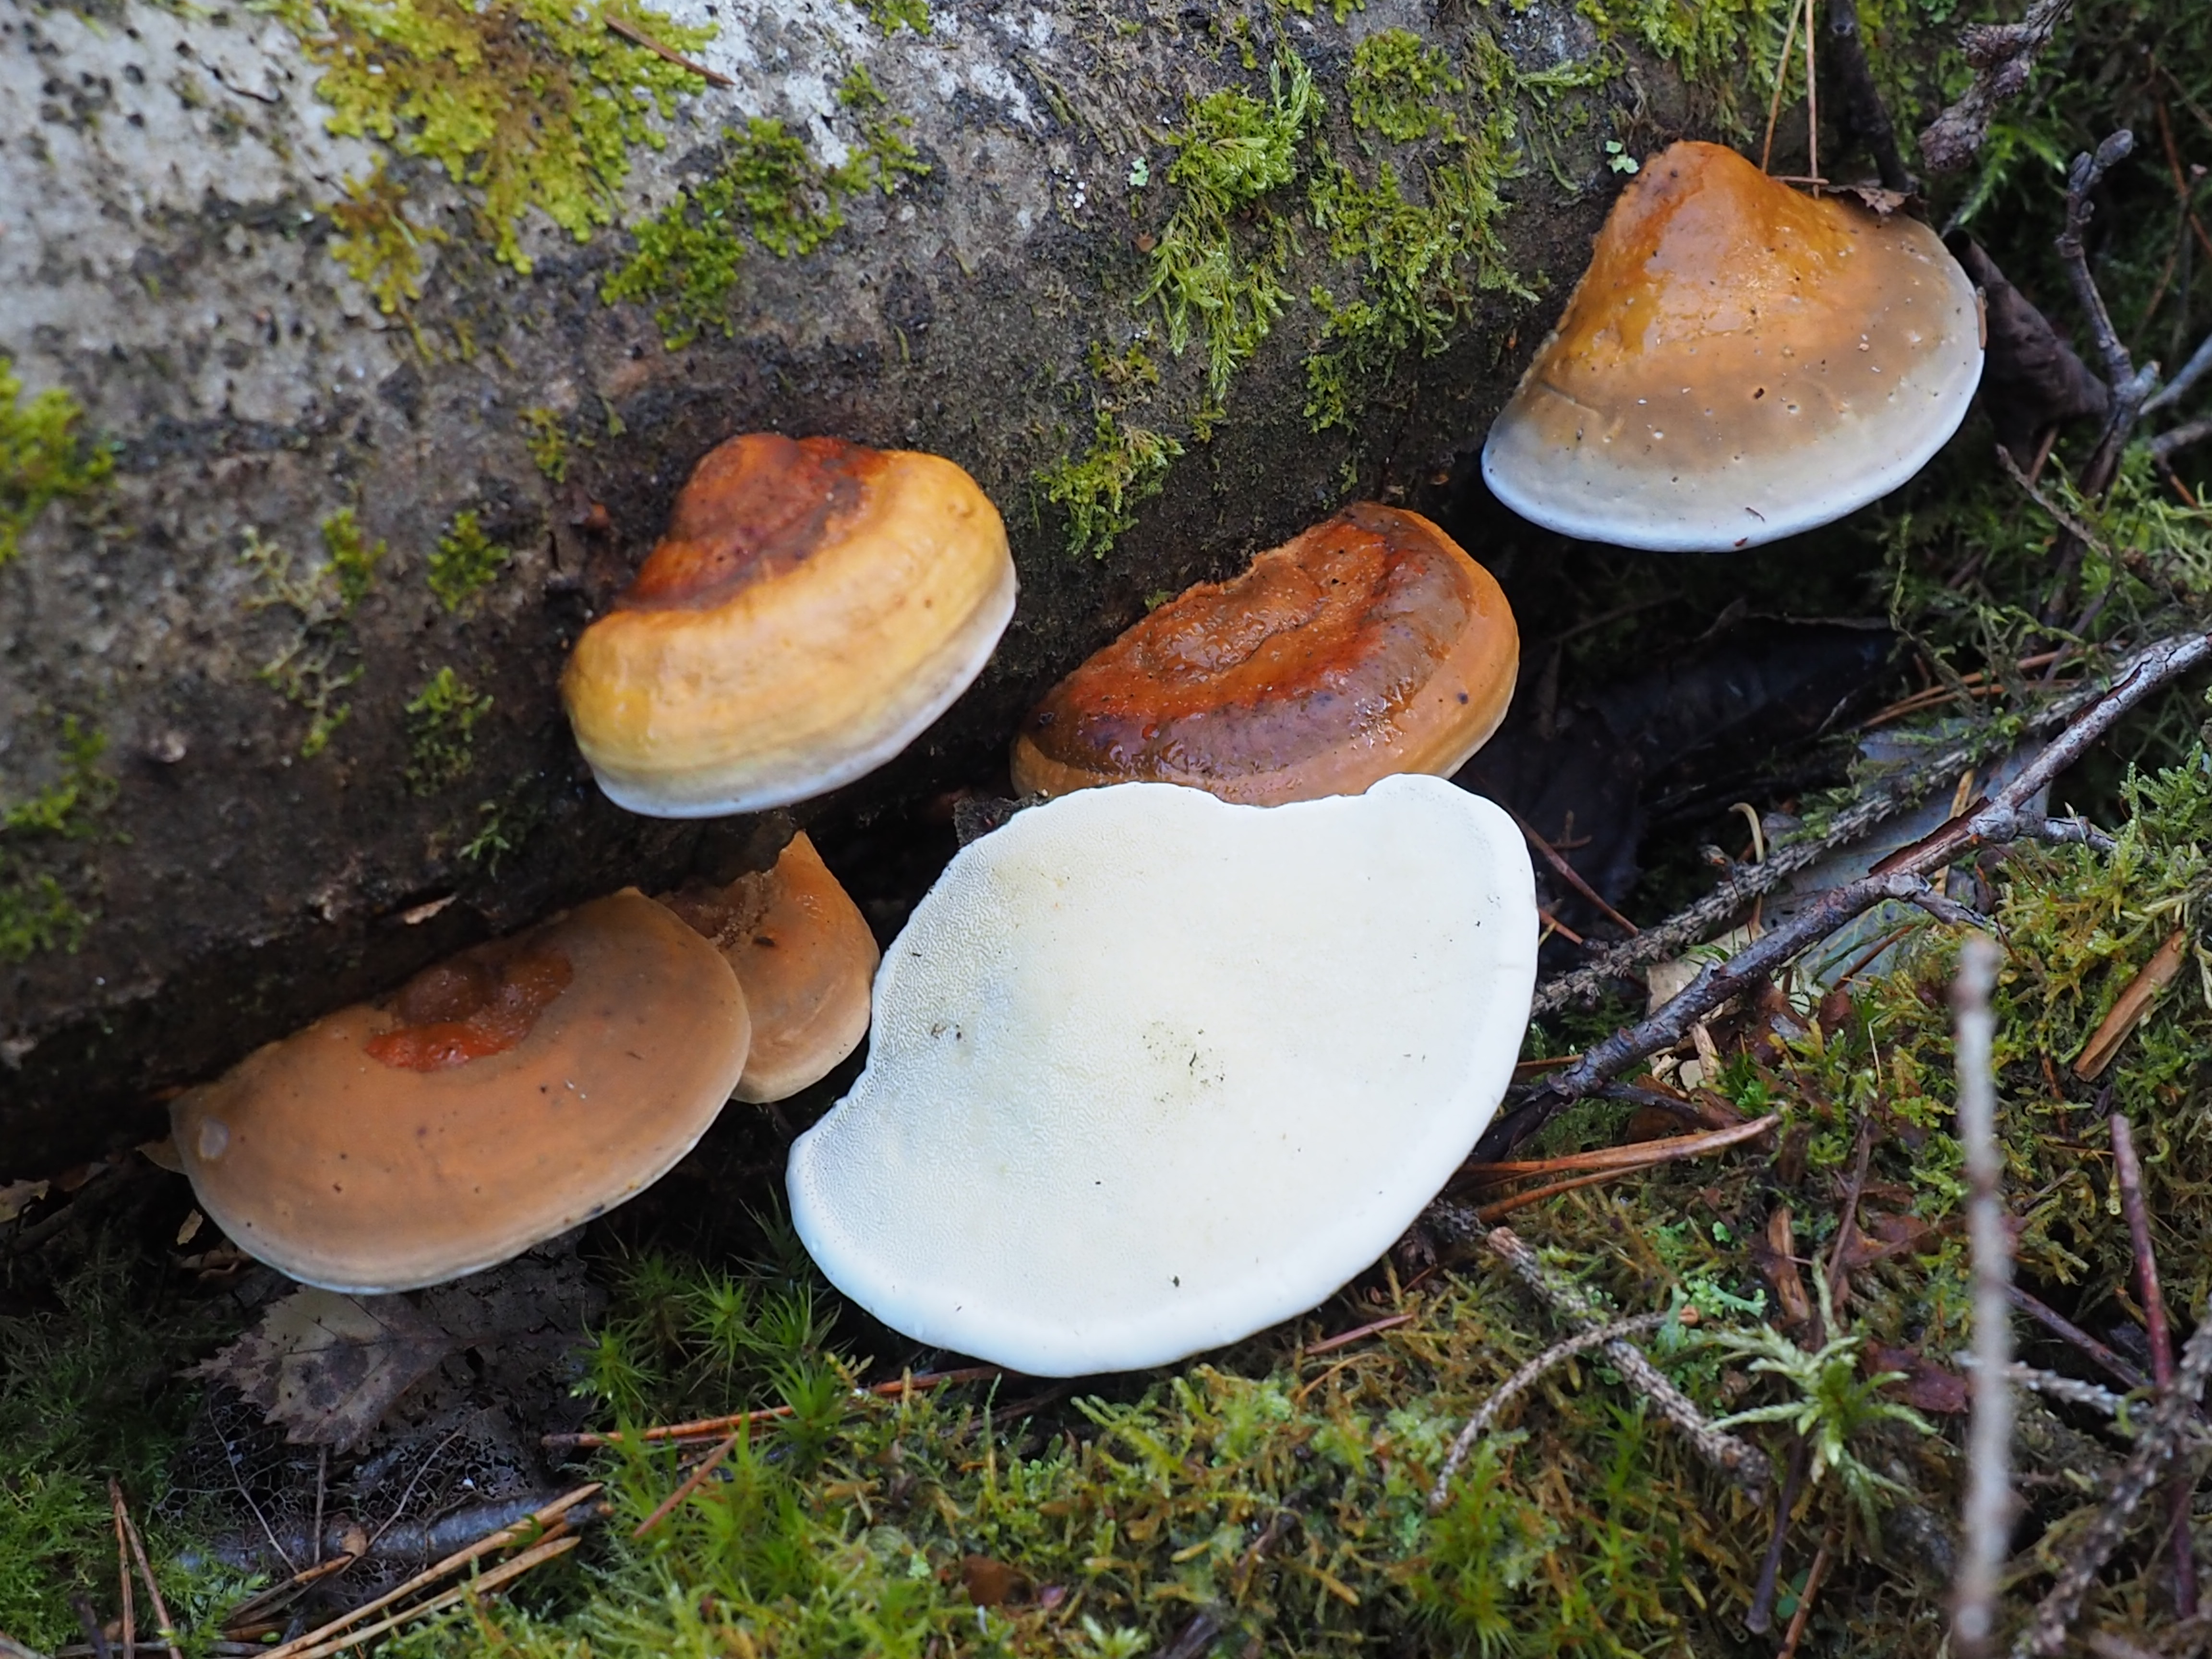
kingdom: Fungi
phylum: Basidiomycota
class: Agaricomycetes
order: Polyporales
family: Fomitopsidaceae
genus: Fomitopsis
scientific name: Fomitopsis pinicola
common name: Red-belted bracket
